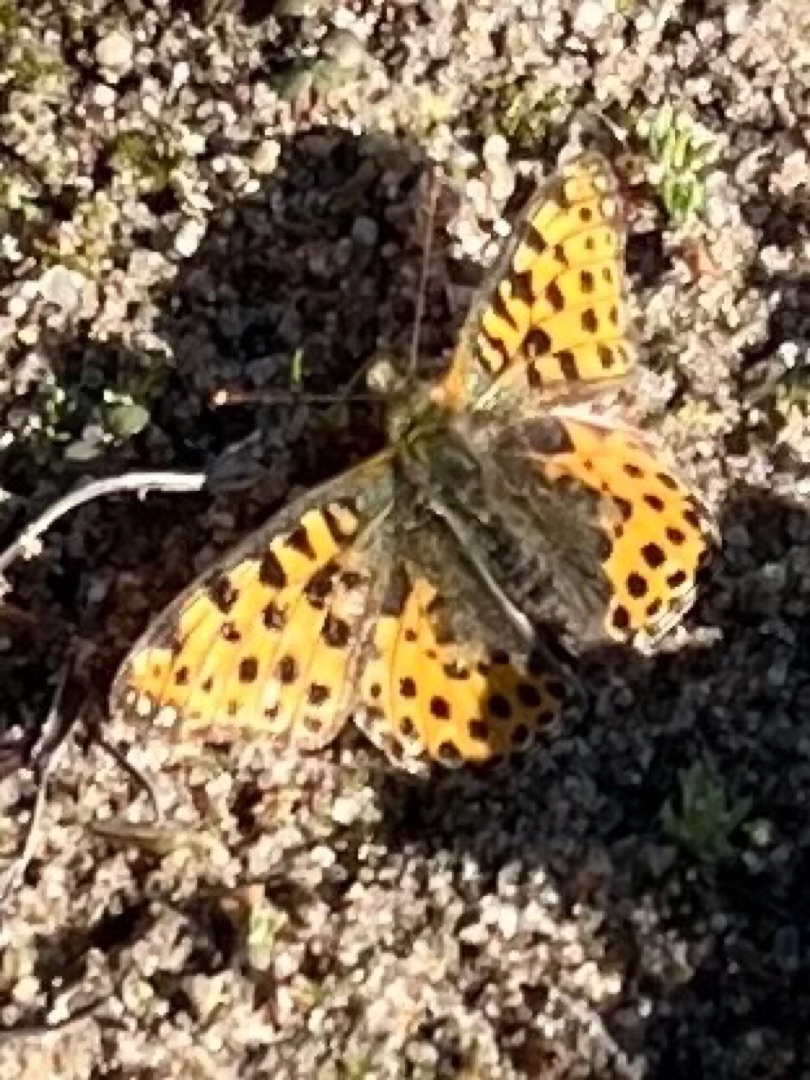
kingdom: Animalia
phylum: Arthropoda
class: Insecta
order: Lepidoptera
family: Nymphalidae
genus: Issoria
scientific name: Issoria lathonia
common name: Storplettet perlemorsommerfugl
